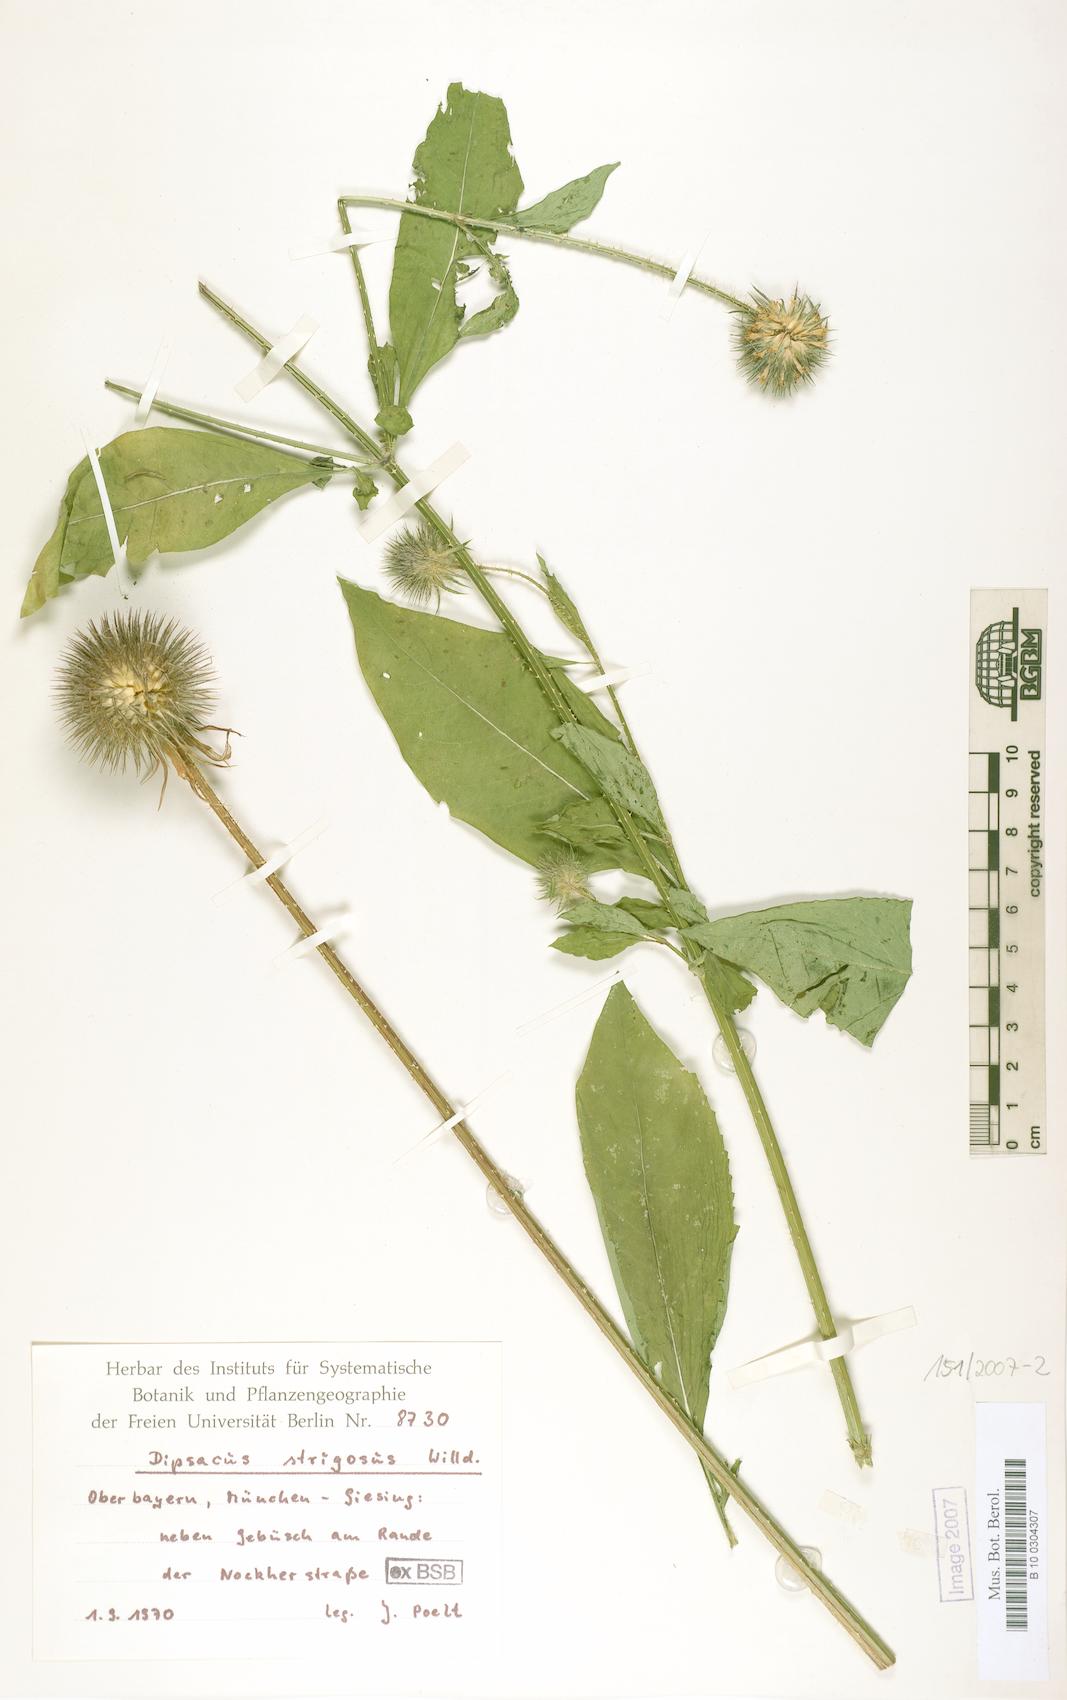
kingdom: Plantae
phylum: Tracheophyta
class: Magnoliopsida
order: Dipsacales
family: Caprifoliaceae
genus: Dipsacus
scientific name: Dipsacus strigosus
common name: Yellow-flowered teasel
